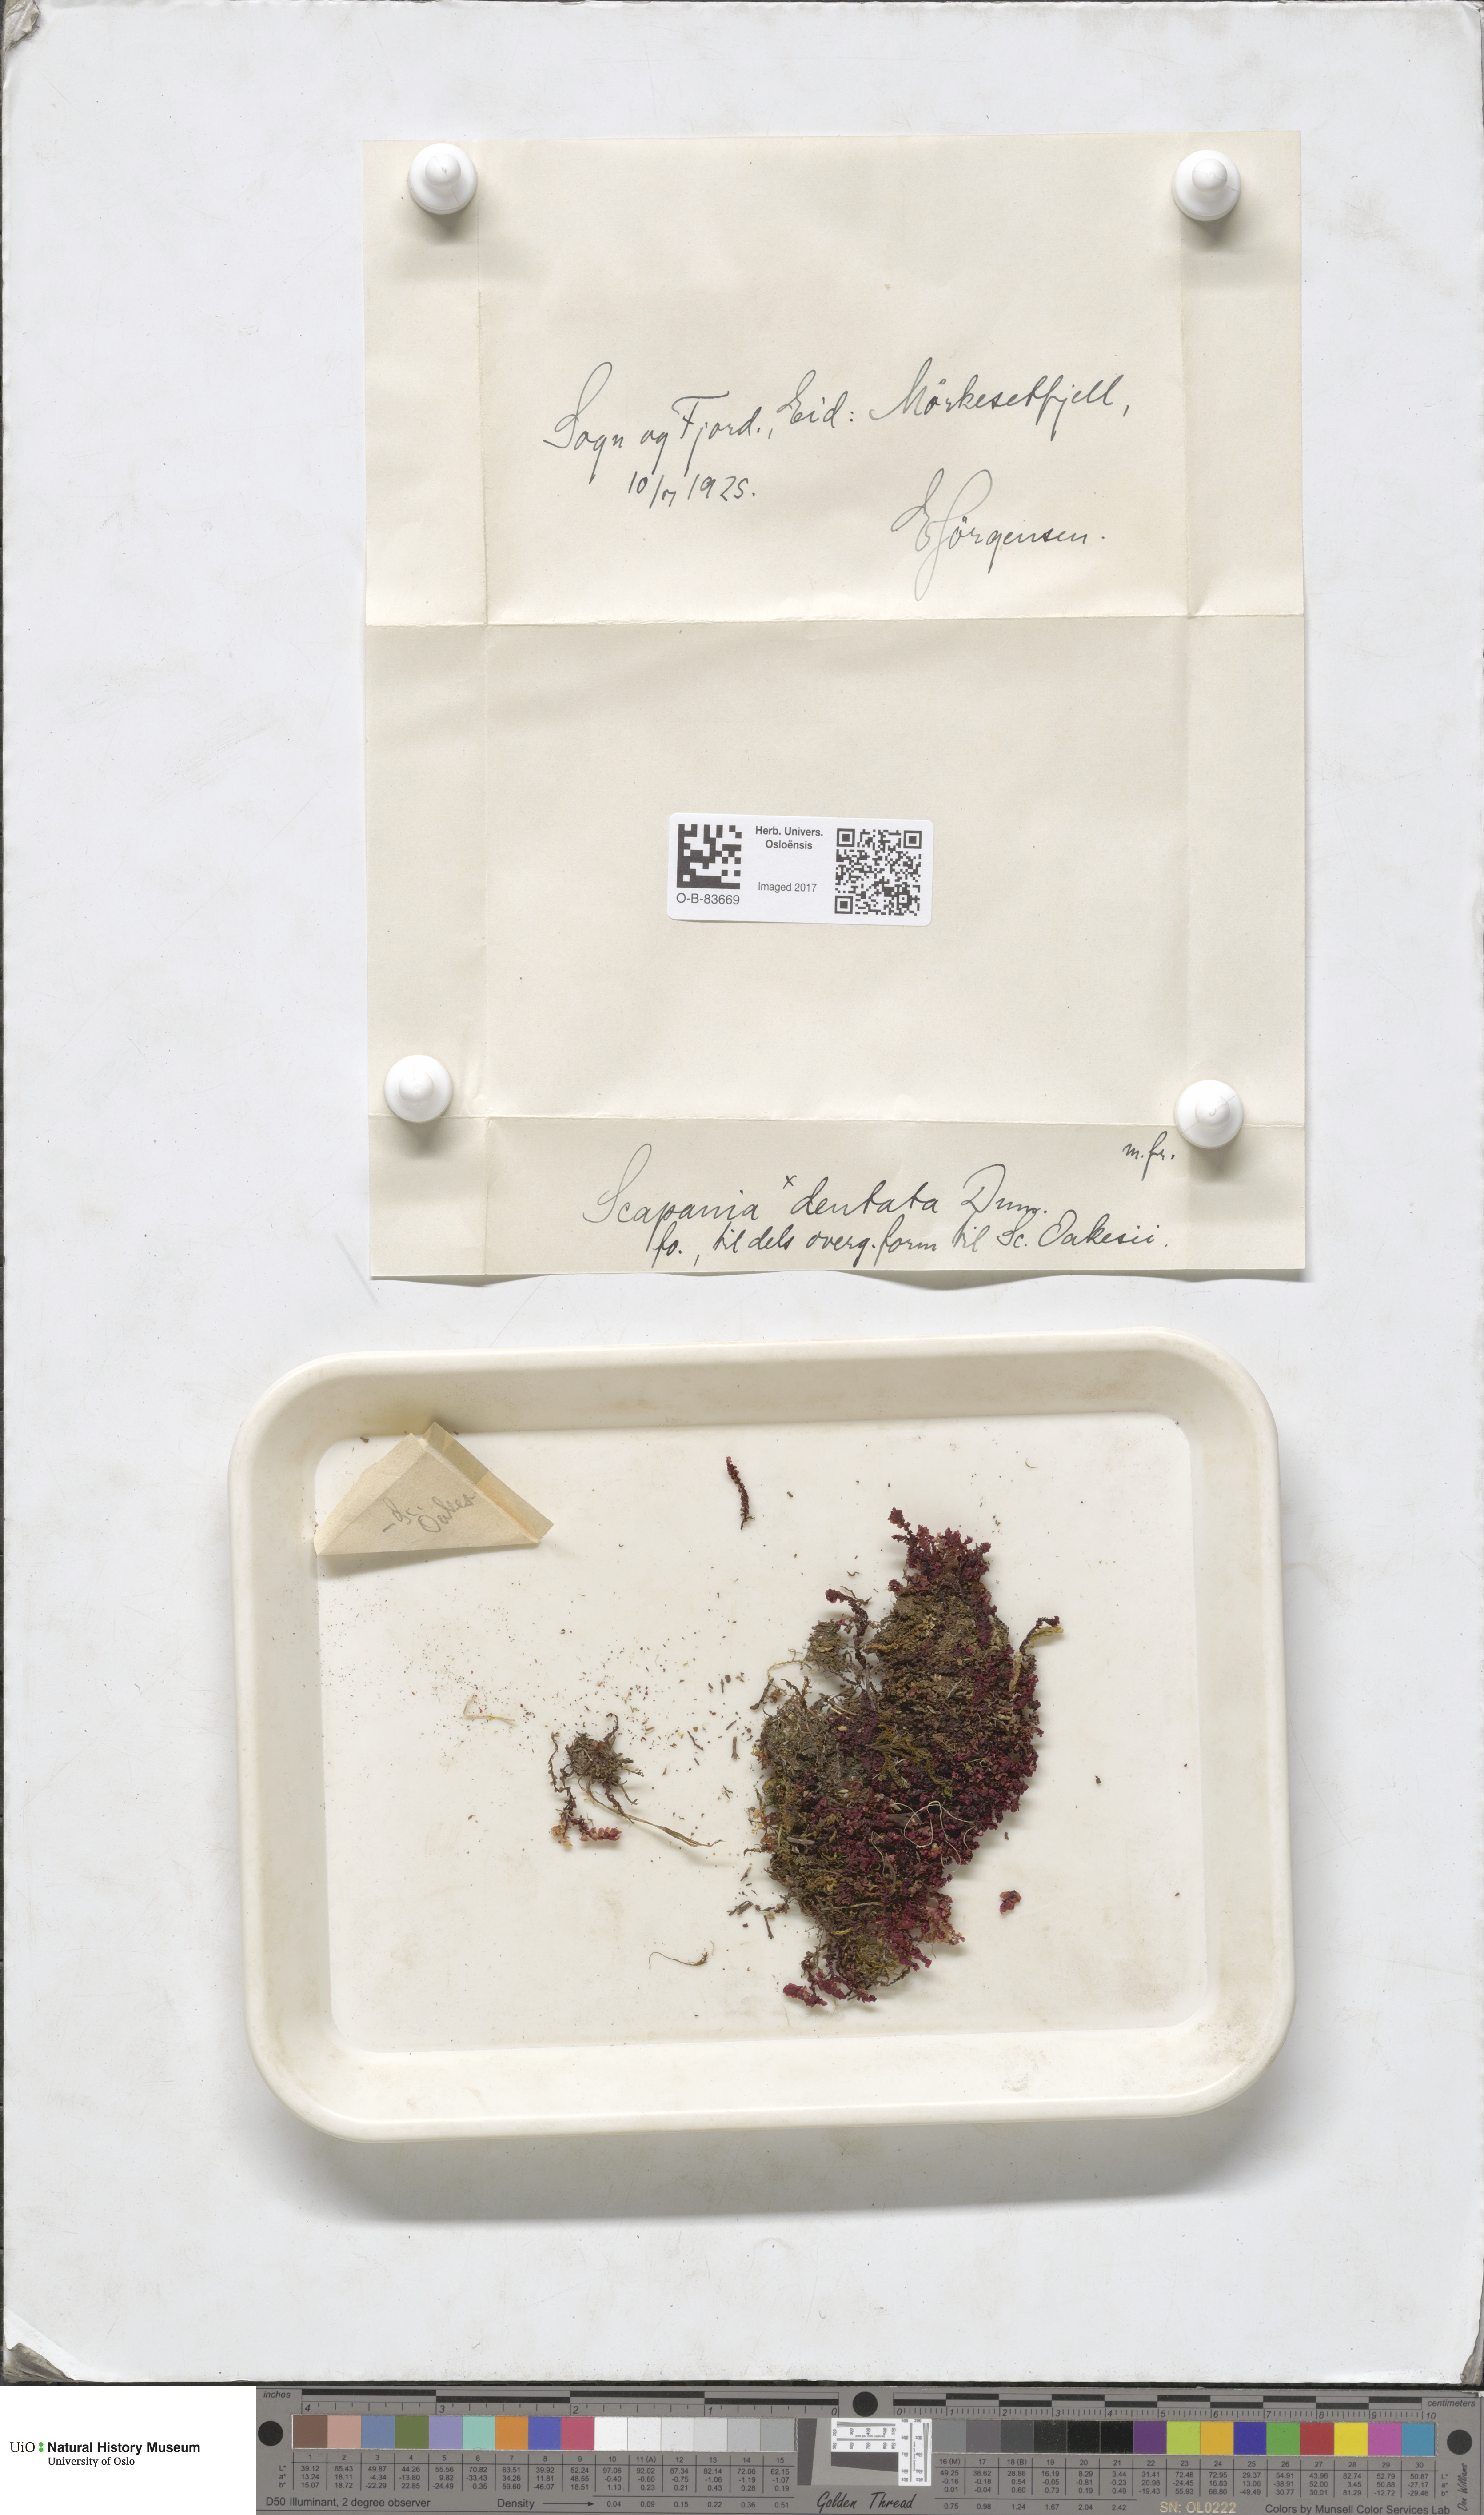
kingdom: Plantae
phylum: Marchantiophyta
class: Jungermanniopsida
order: Jungermanniales
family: Scapaniaceae
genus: Scapania
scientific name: Scapania undulata
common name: Water earwort
